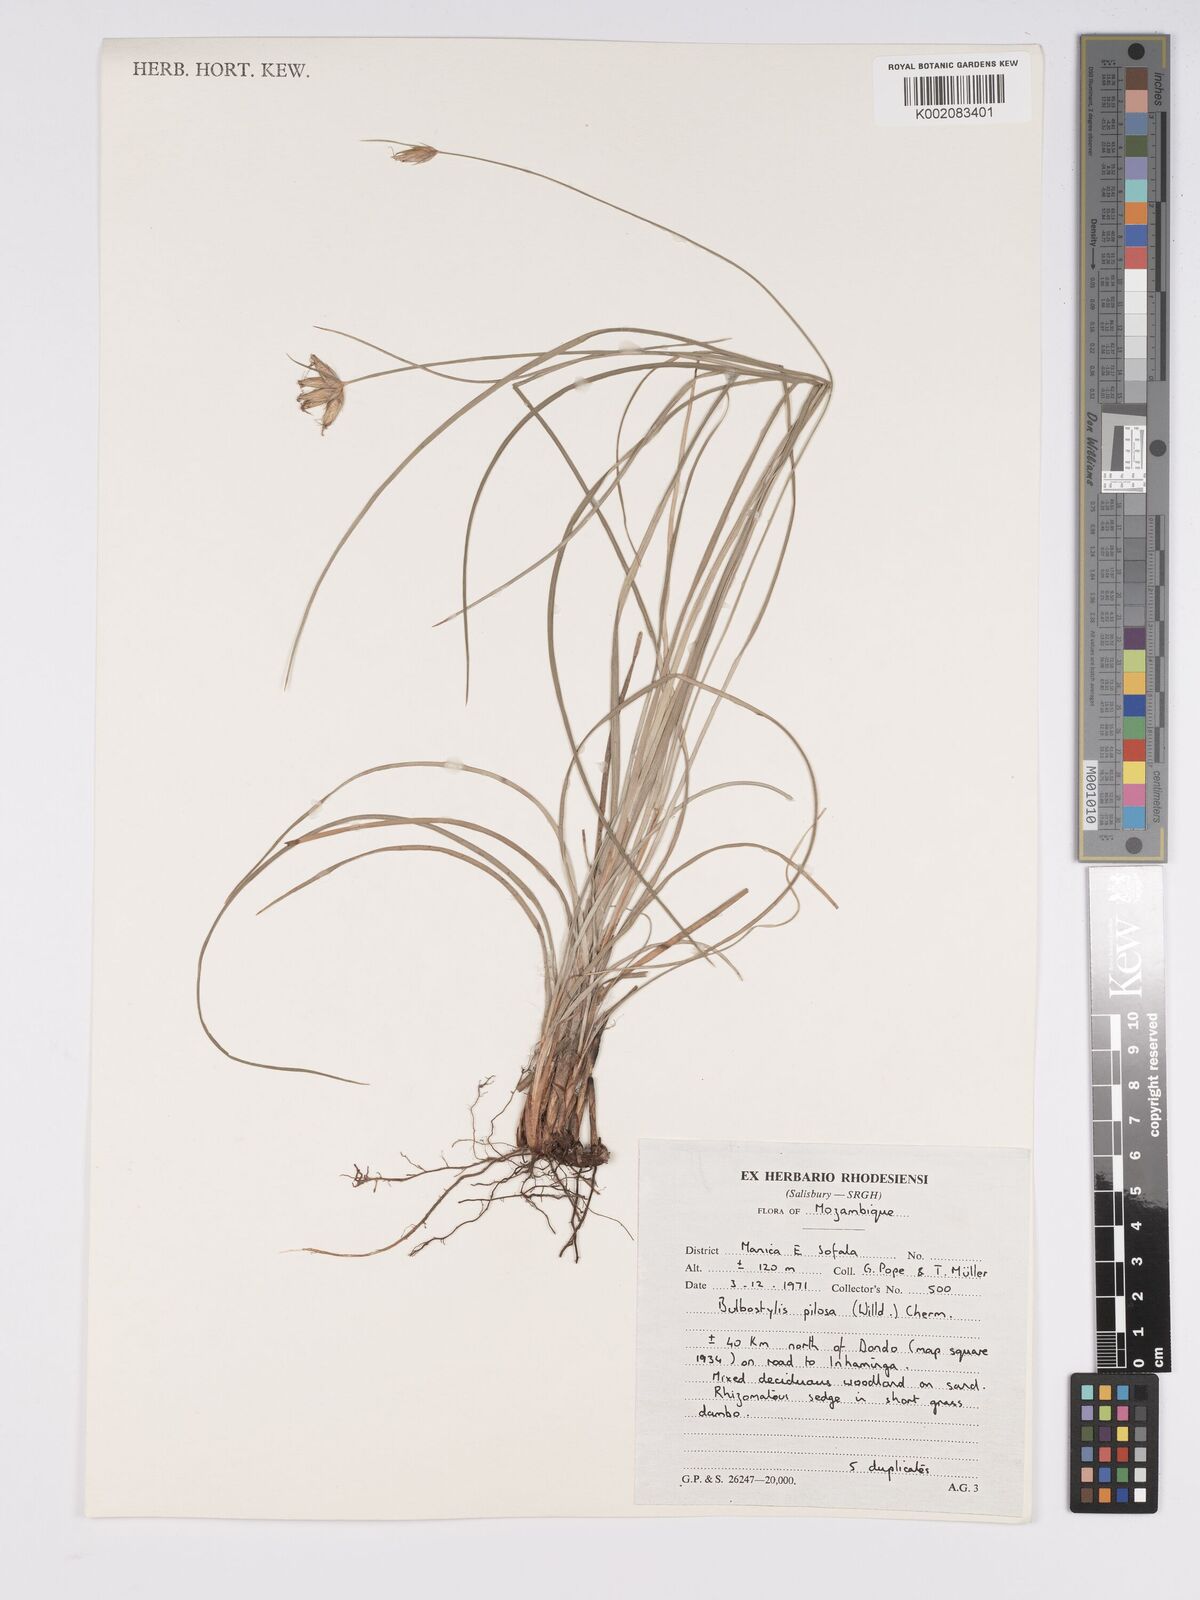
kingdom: Plantae
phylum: Tracheophyta
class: Liliopsida
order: Poales
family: Cyperaceae
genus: Bulbostylis
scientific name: Bulbostylis pilosa
